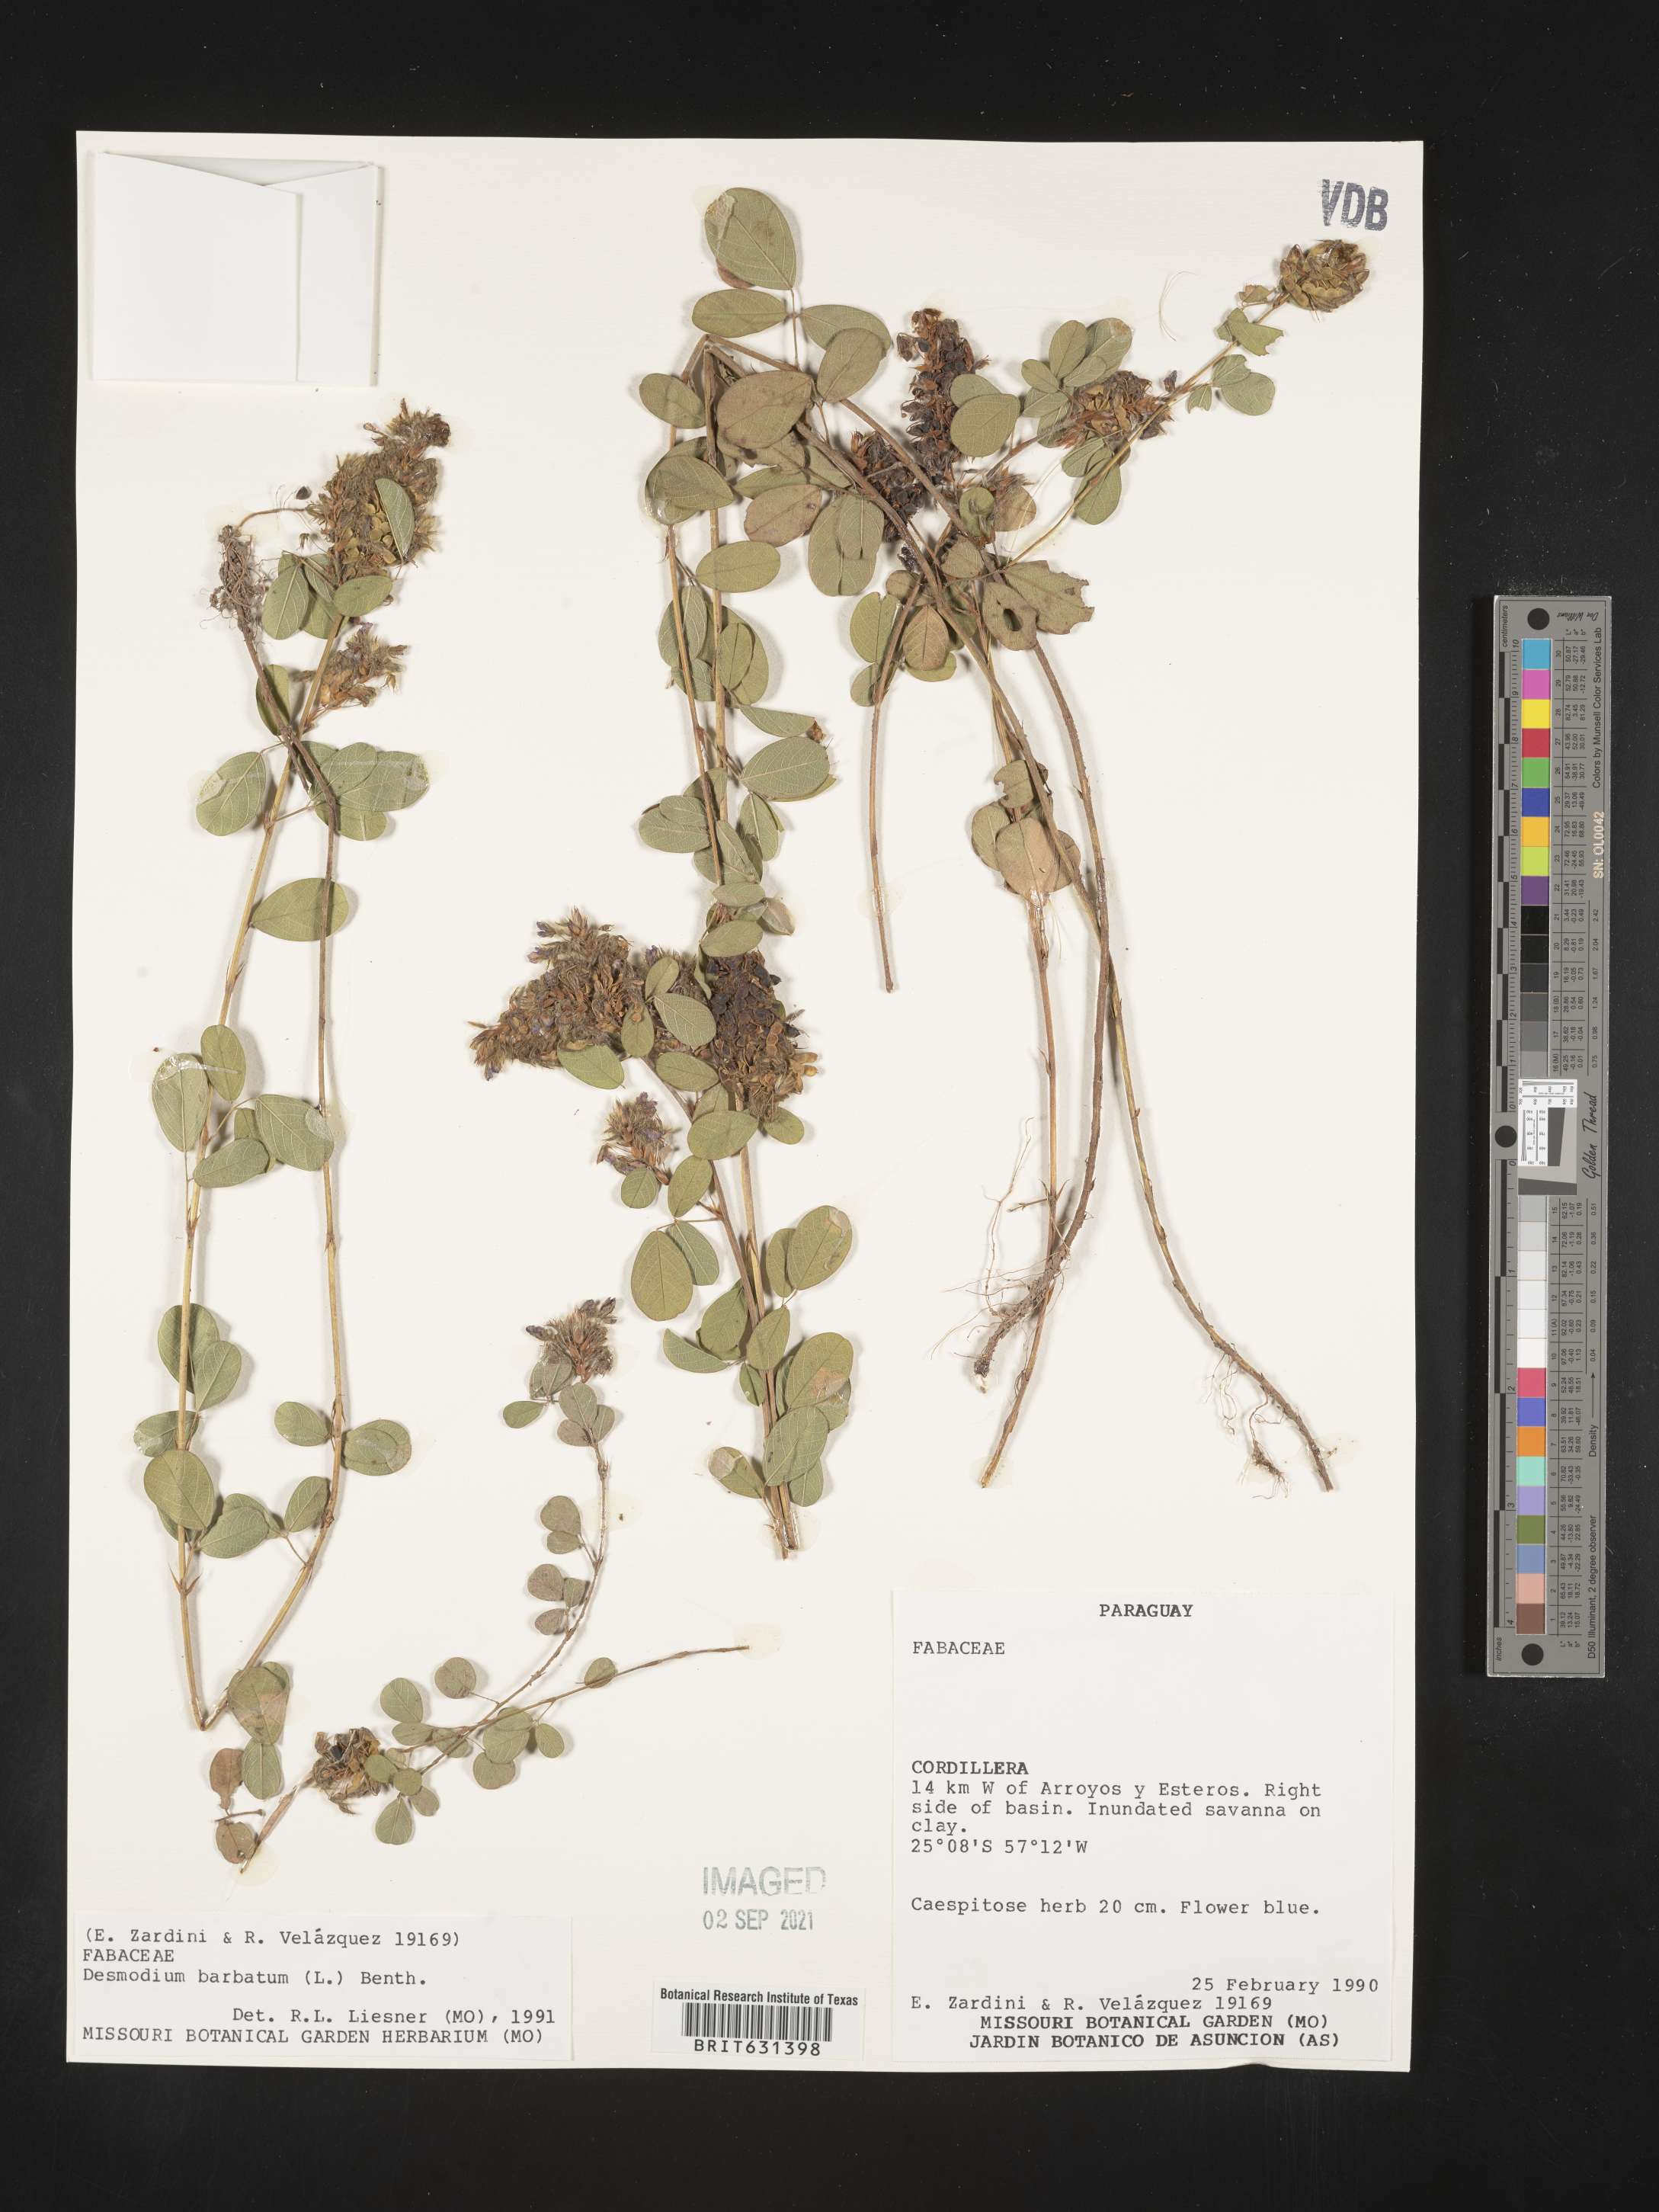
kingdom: Plantae
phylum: Tracheophyta
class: Magnoliopsida
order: Fabales
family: Fabaceae
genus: Grona
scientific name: Grona barbata
